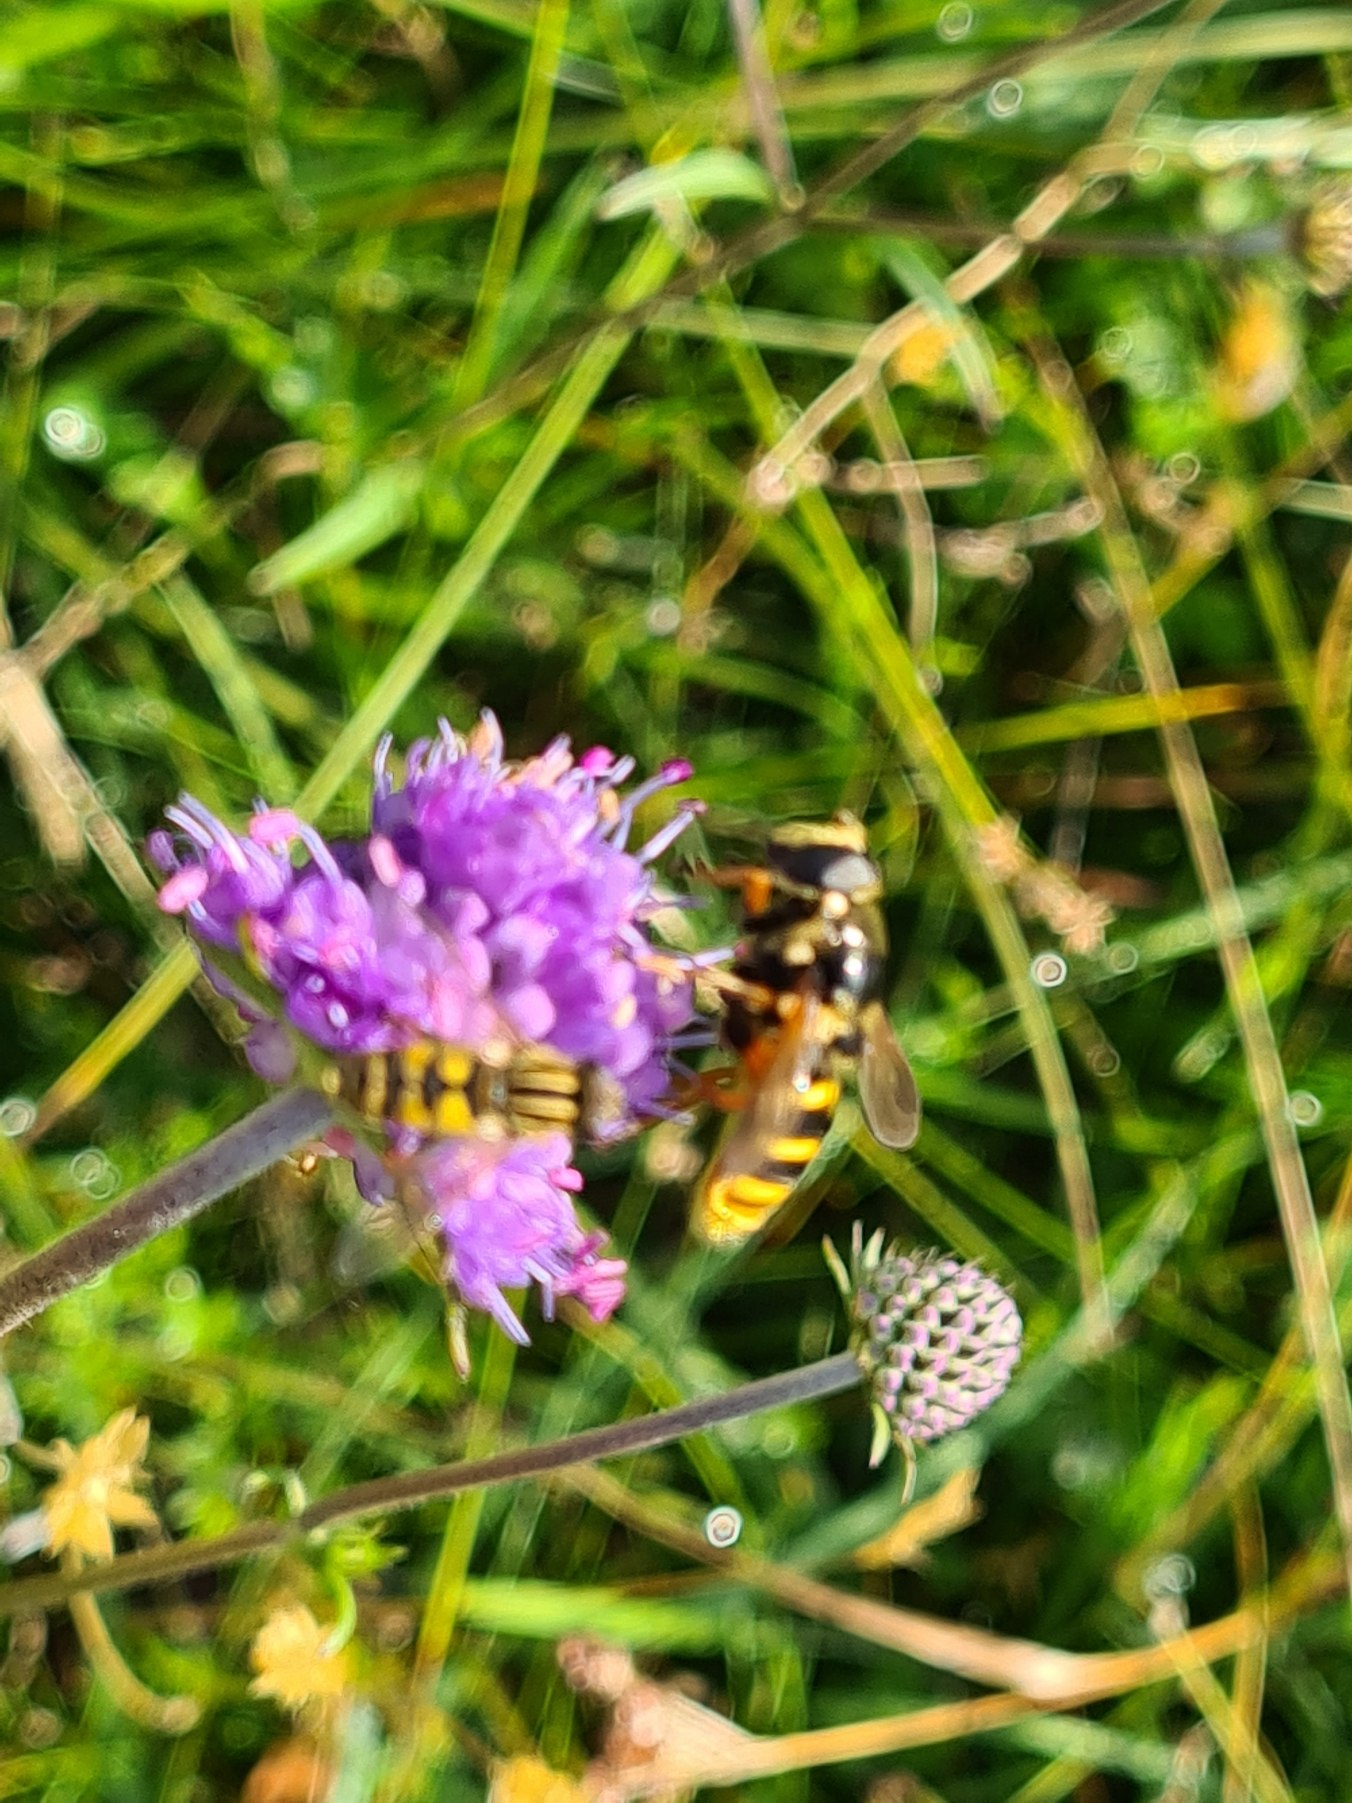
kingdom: Animalia
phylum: Arthropoda
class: Insecta
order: Diptera
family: Syrphidae
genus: Sericomyia
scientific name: Sericomyia silentis
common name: Tørve-silkesvirreflue
